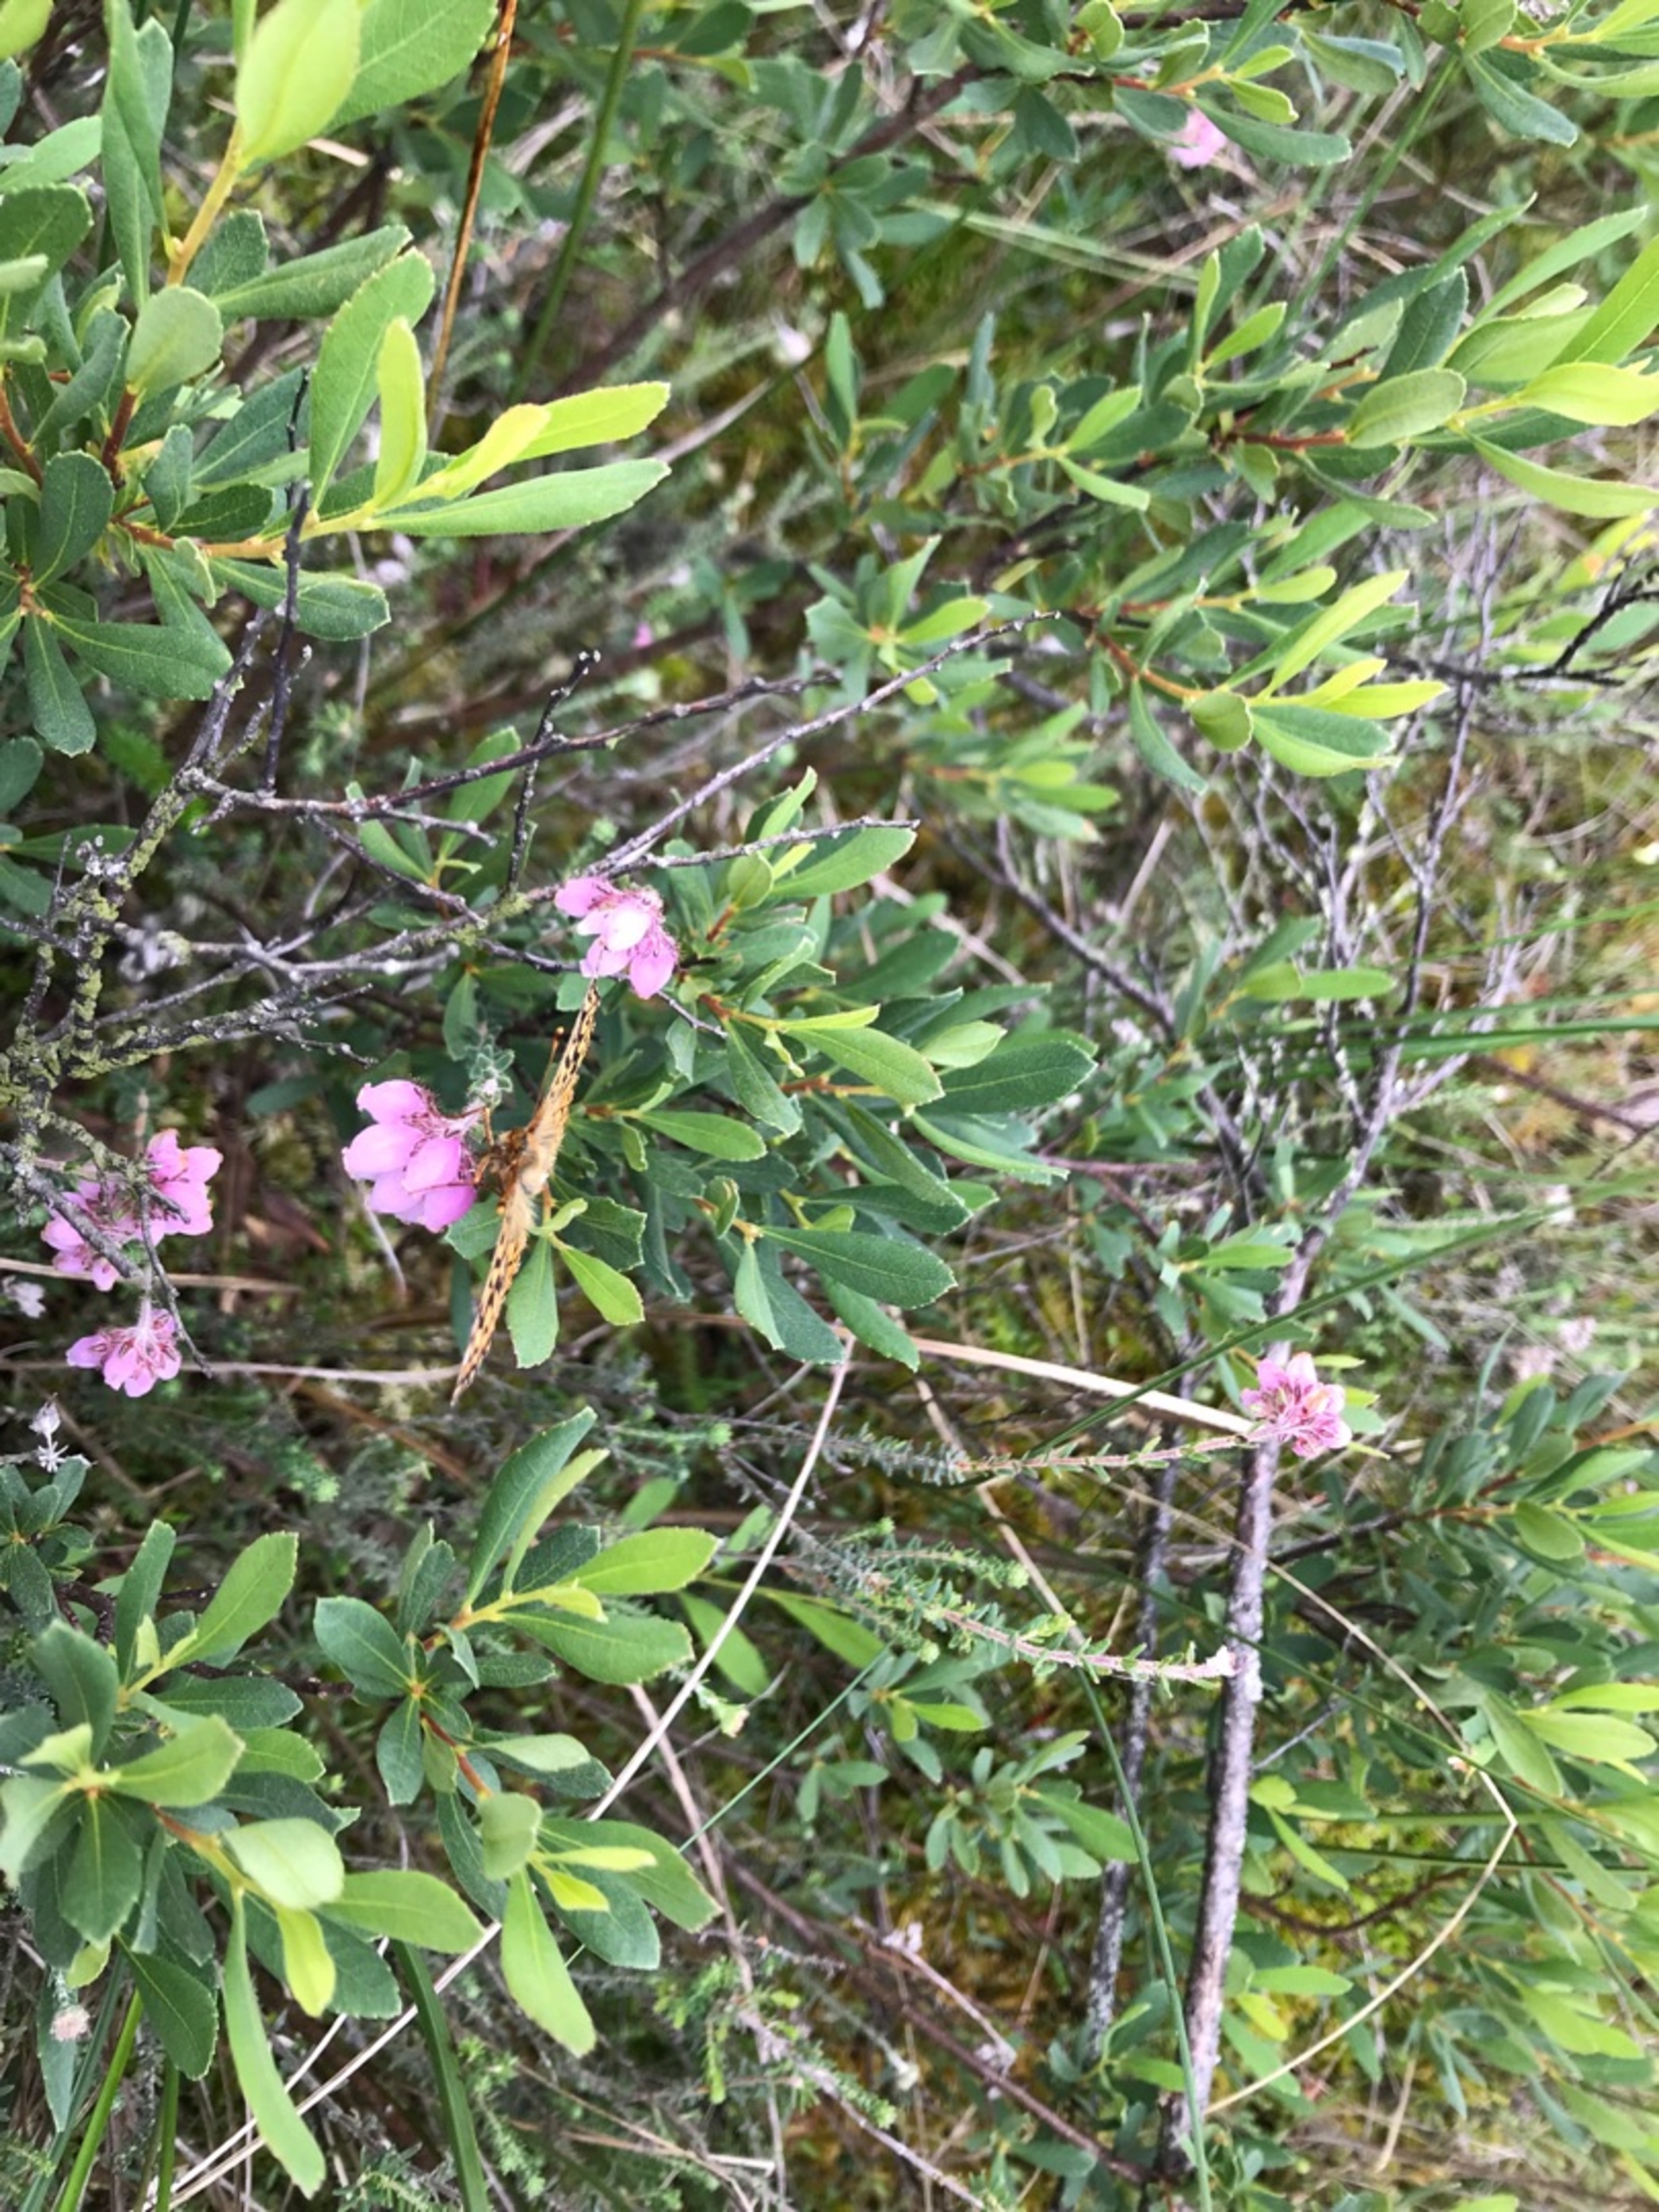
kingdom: Plantae
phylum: Tracheophyta
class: Magnoliopsida
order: Ericales
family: Ericaceae
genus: Erica
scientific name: Erica tetralix
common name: Klokkelyng
